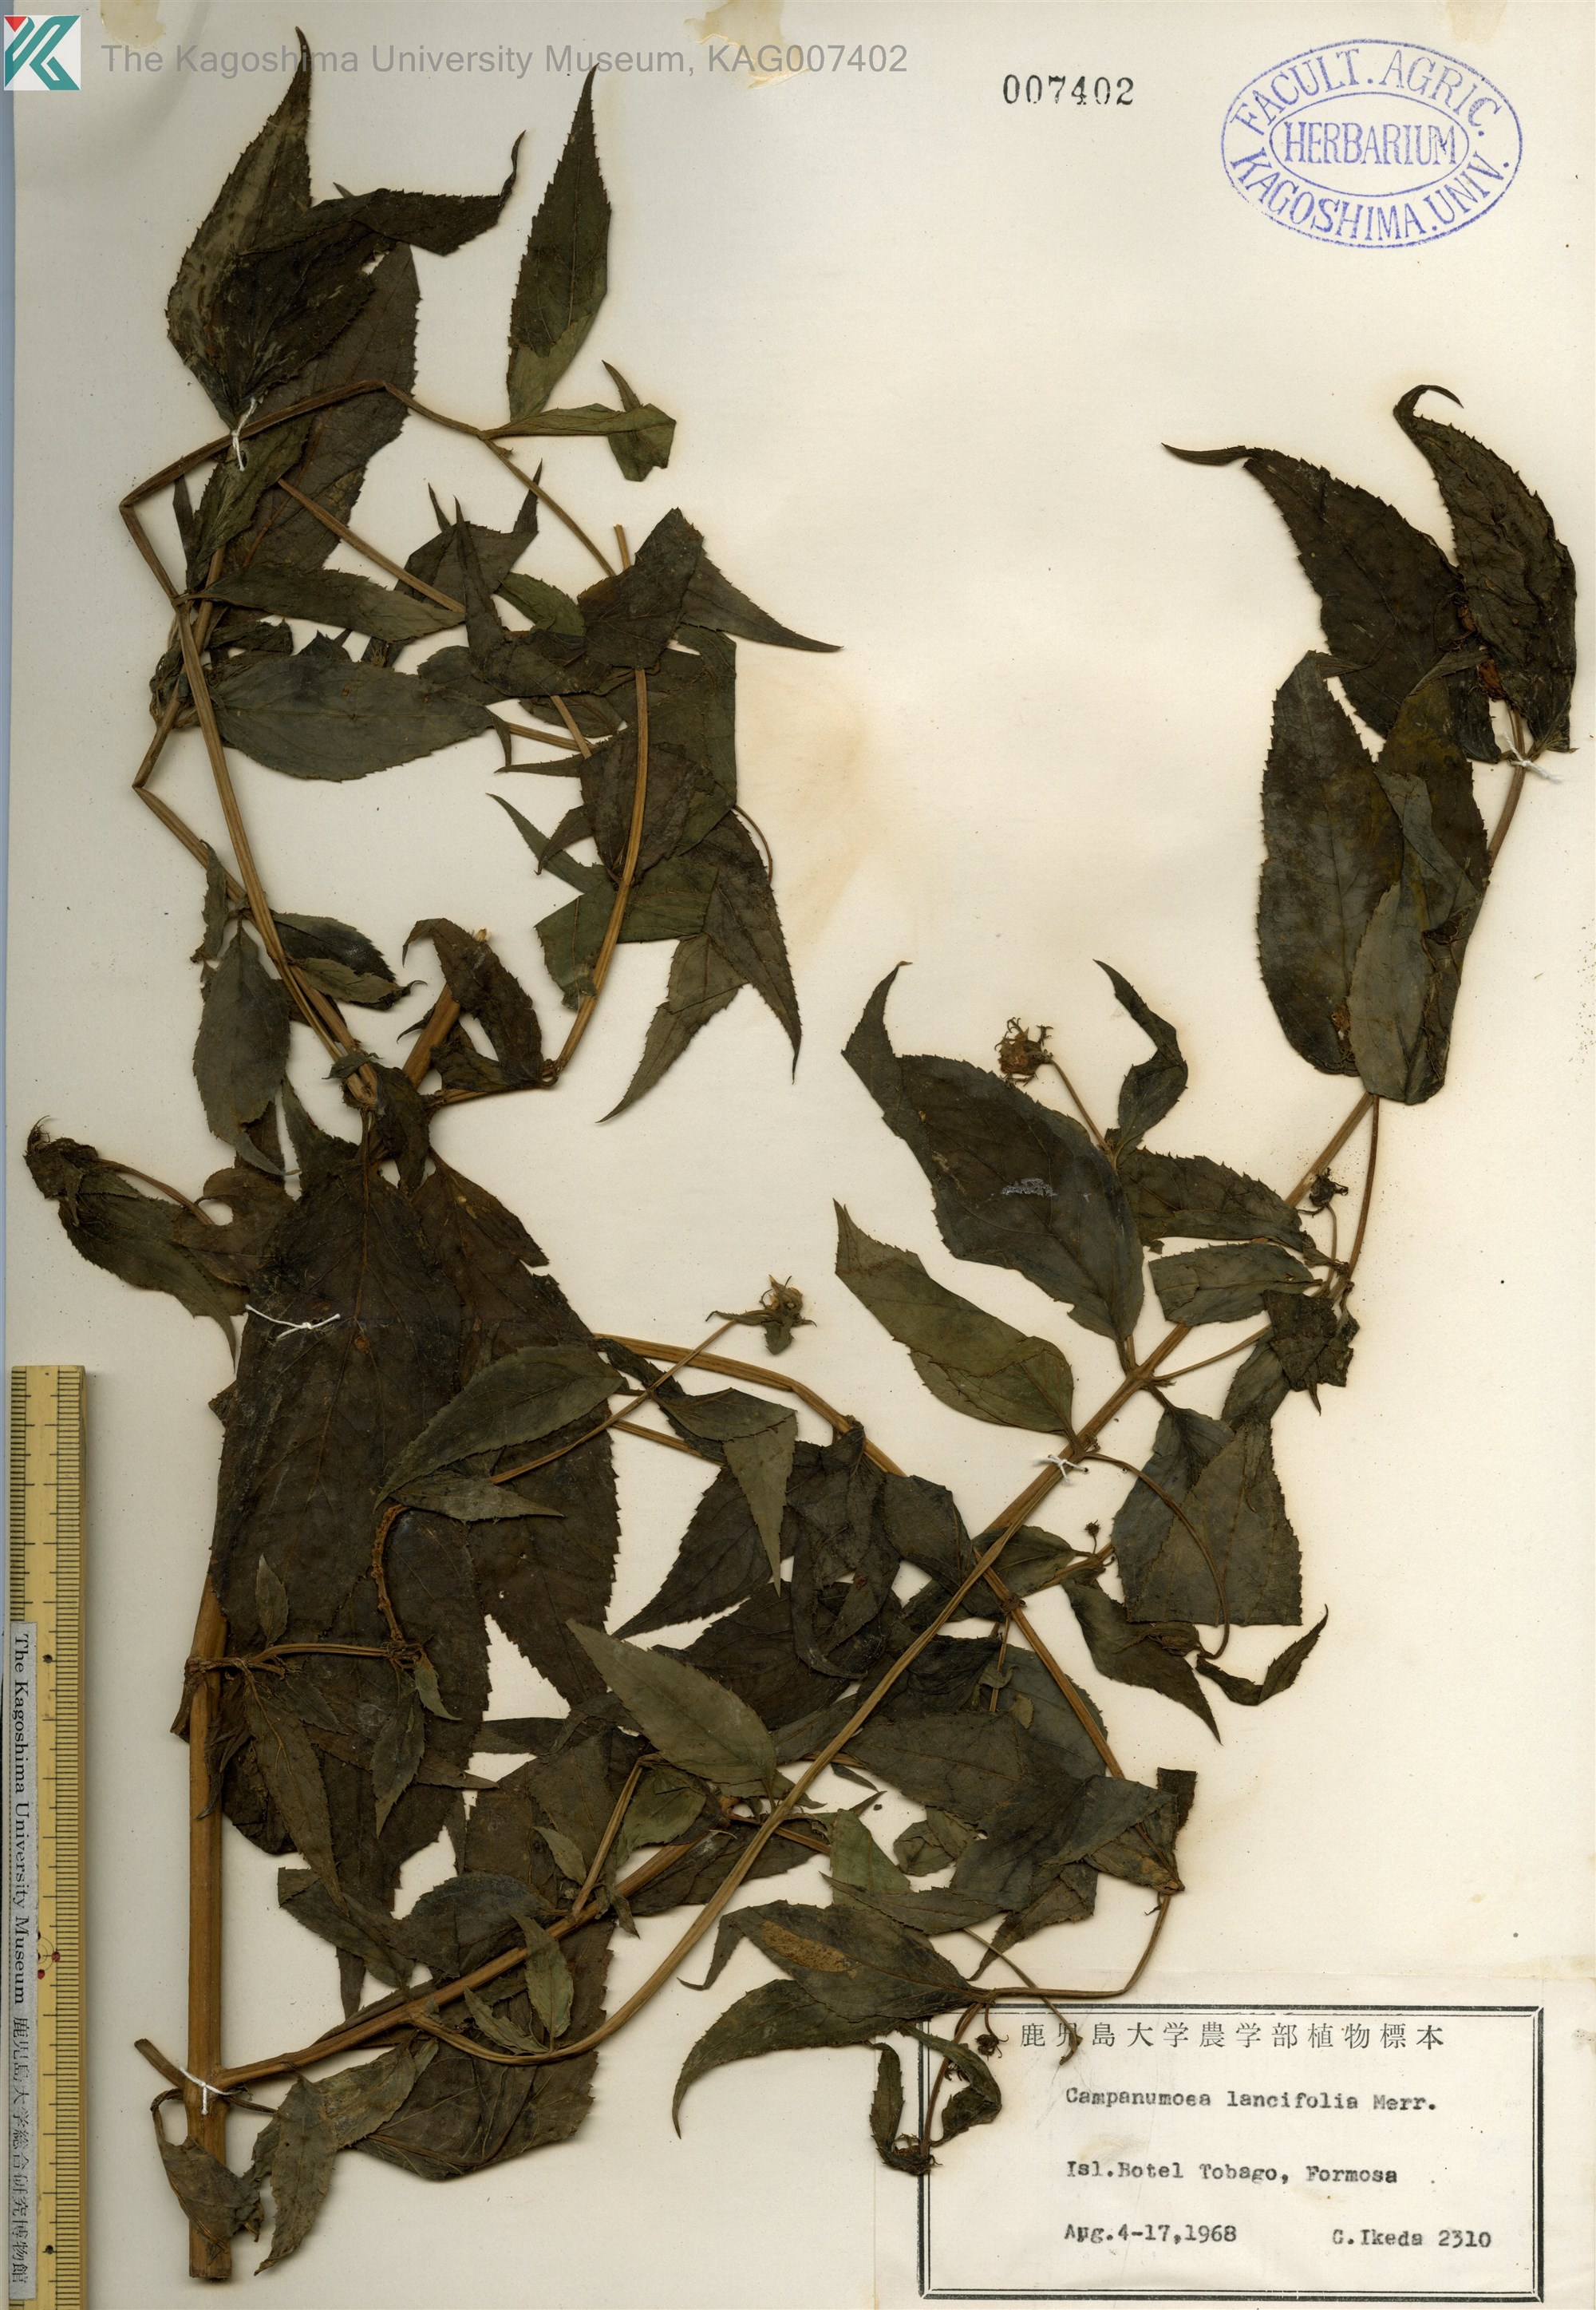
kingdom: Plantae
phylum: Tracheophyta
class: Magnoliopsida
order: Asterales
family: Campanulaceae
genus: Cyclocodon
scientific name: Cyclocodon lancifolius
